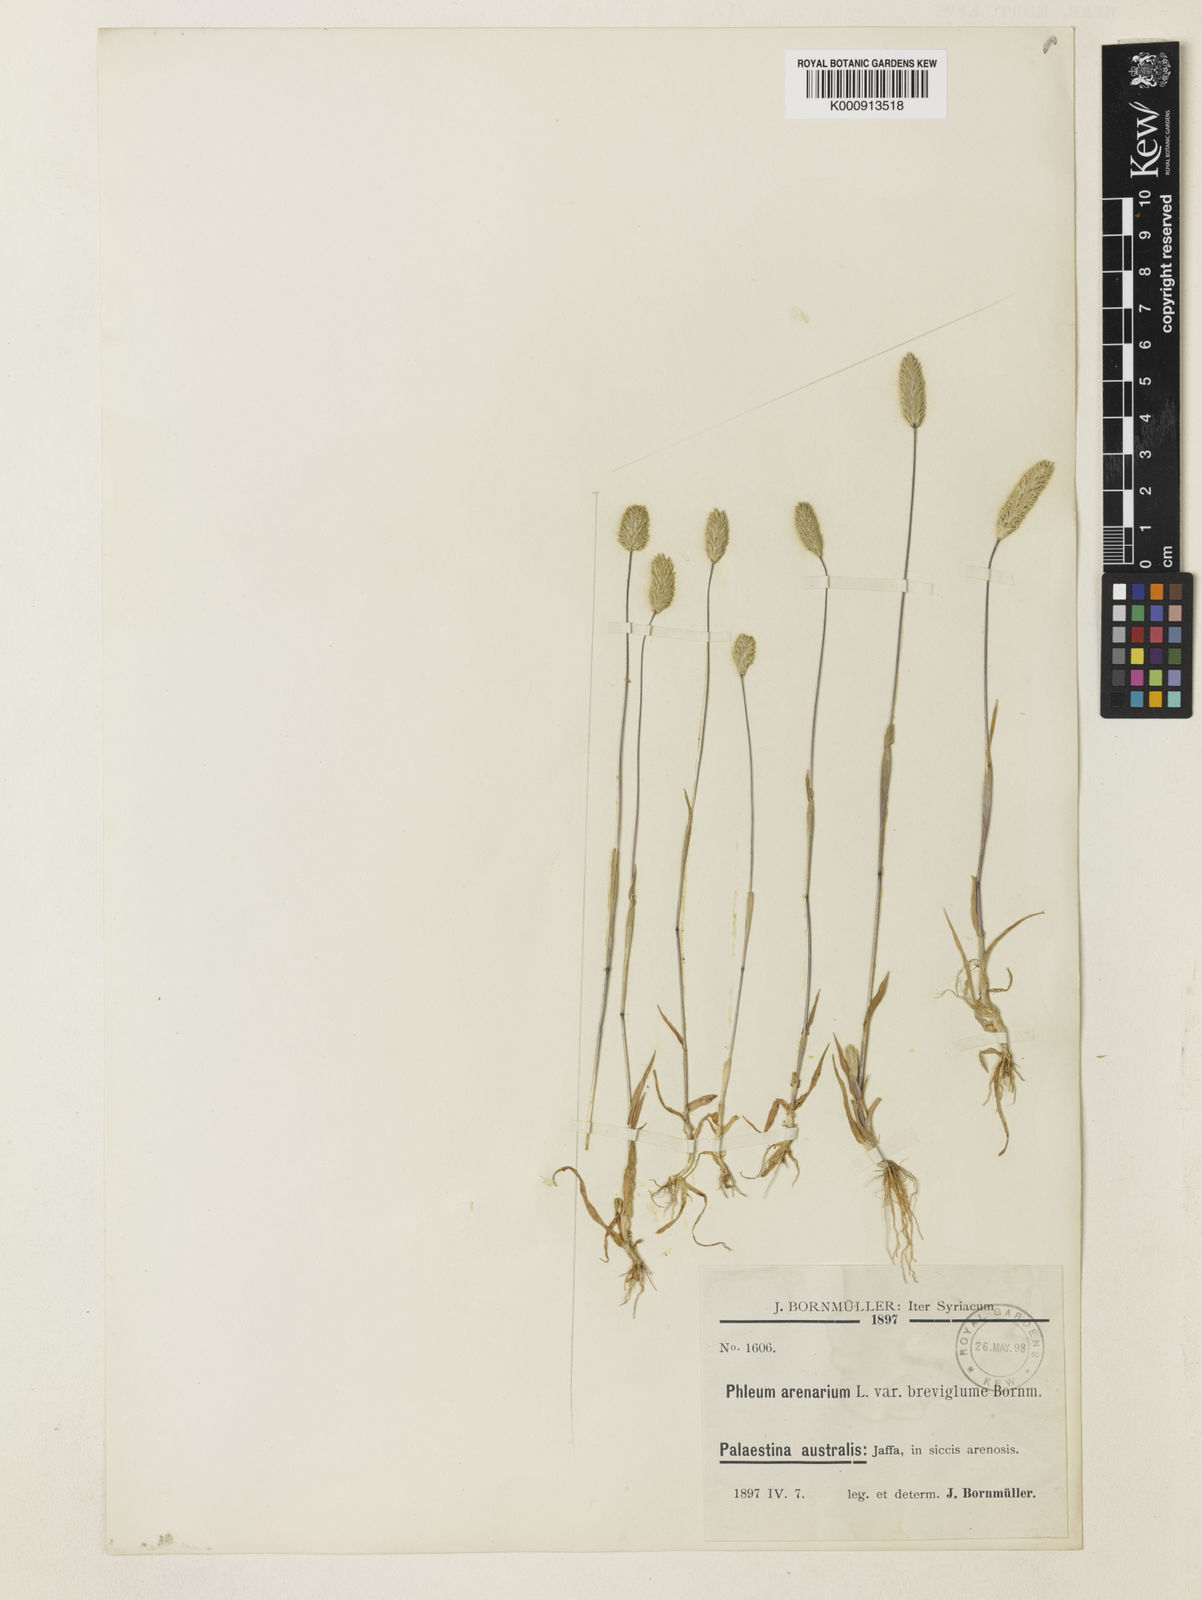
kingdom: Plantae
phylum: Tracheophyta
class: Liliopsida
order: Poales
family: Poaceae
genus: Phleum
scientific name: Phleum arenarium
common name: Sand cat's-tail
